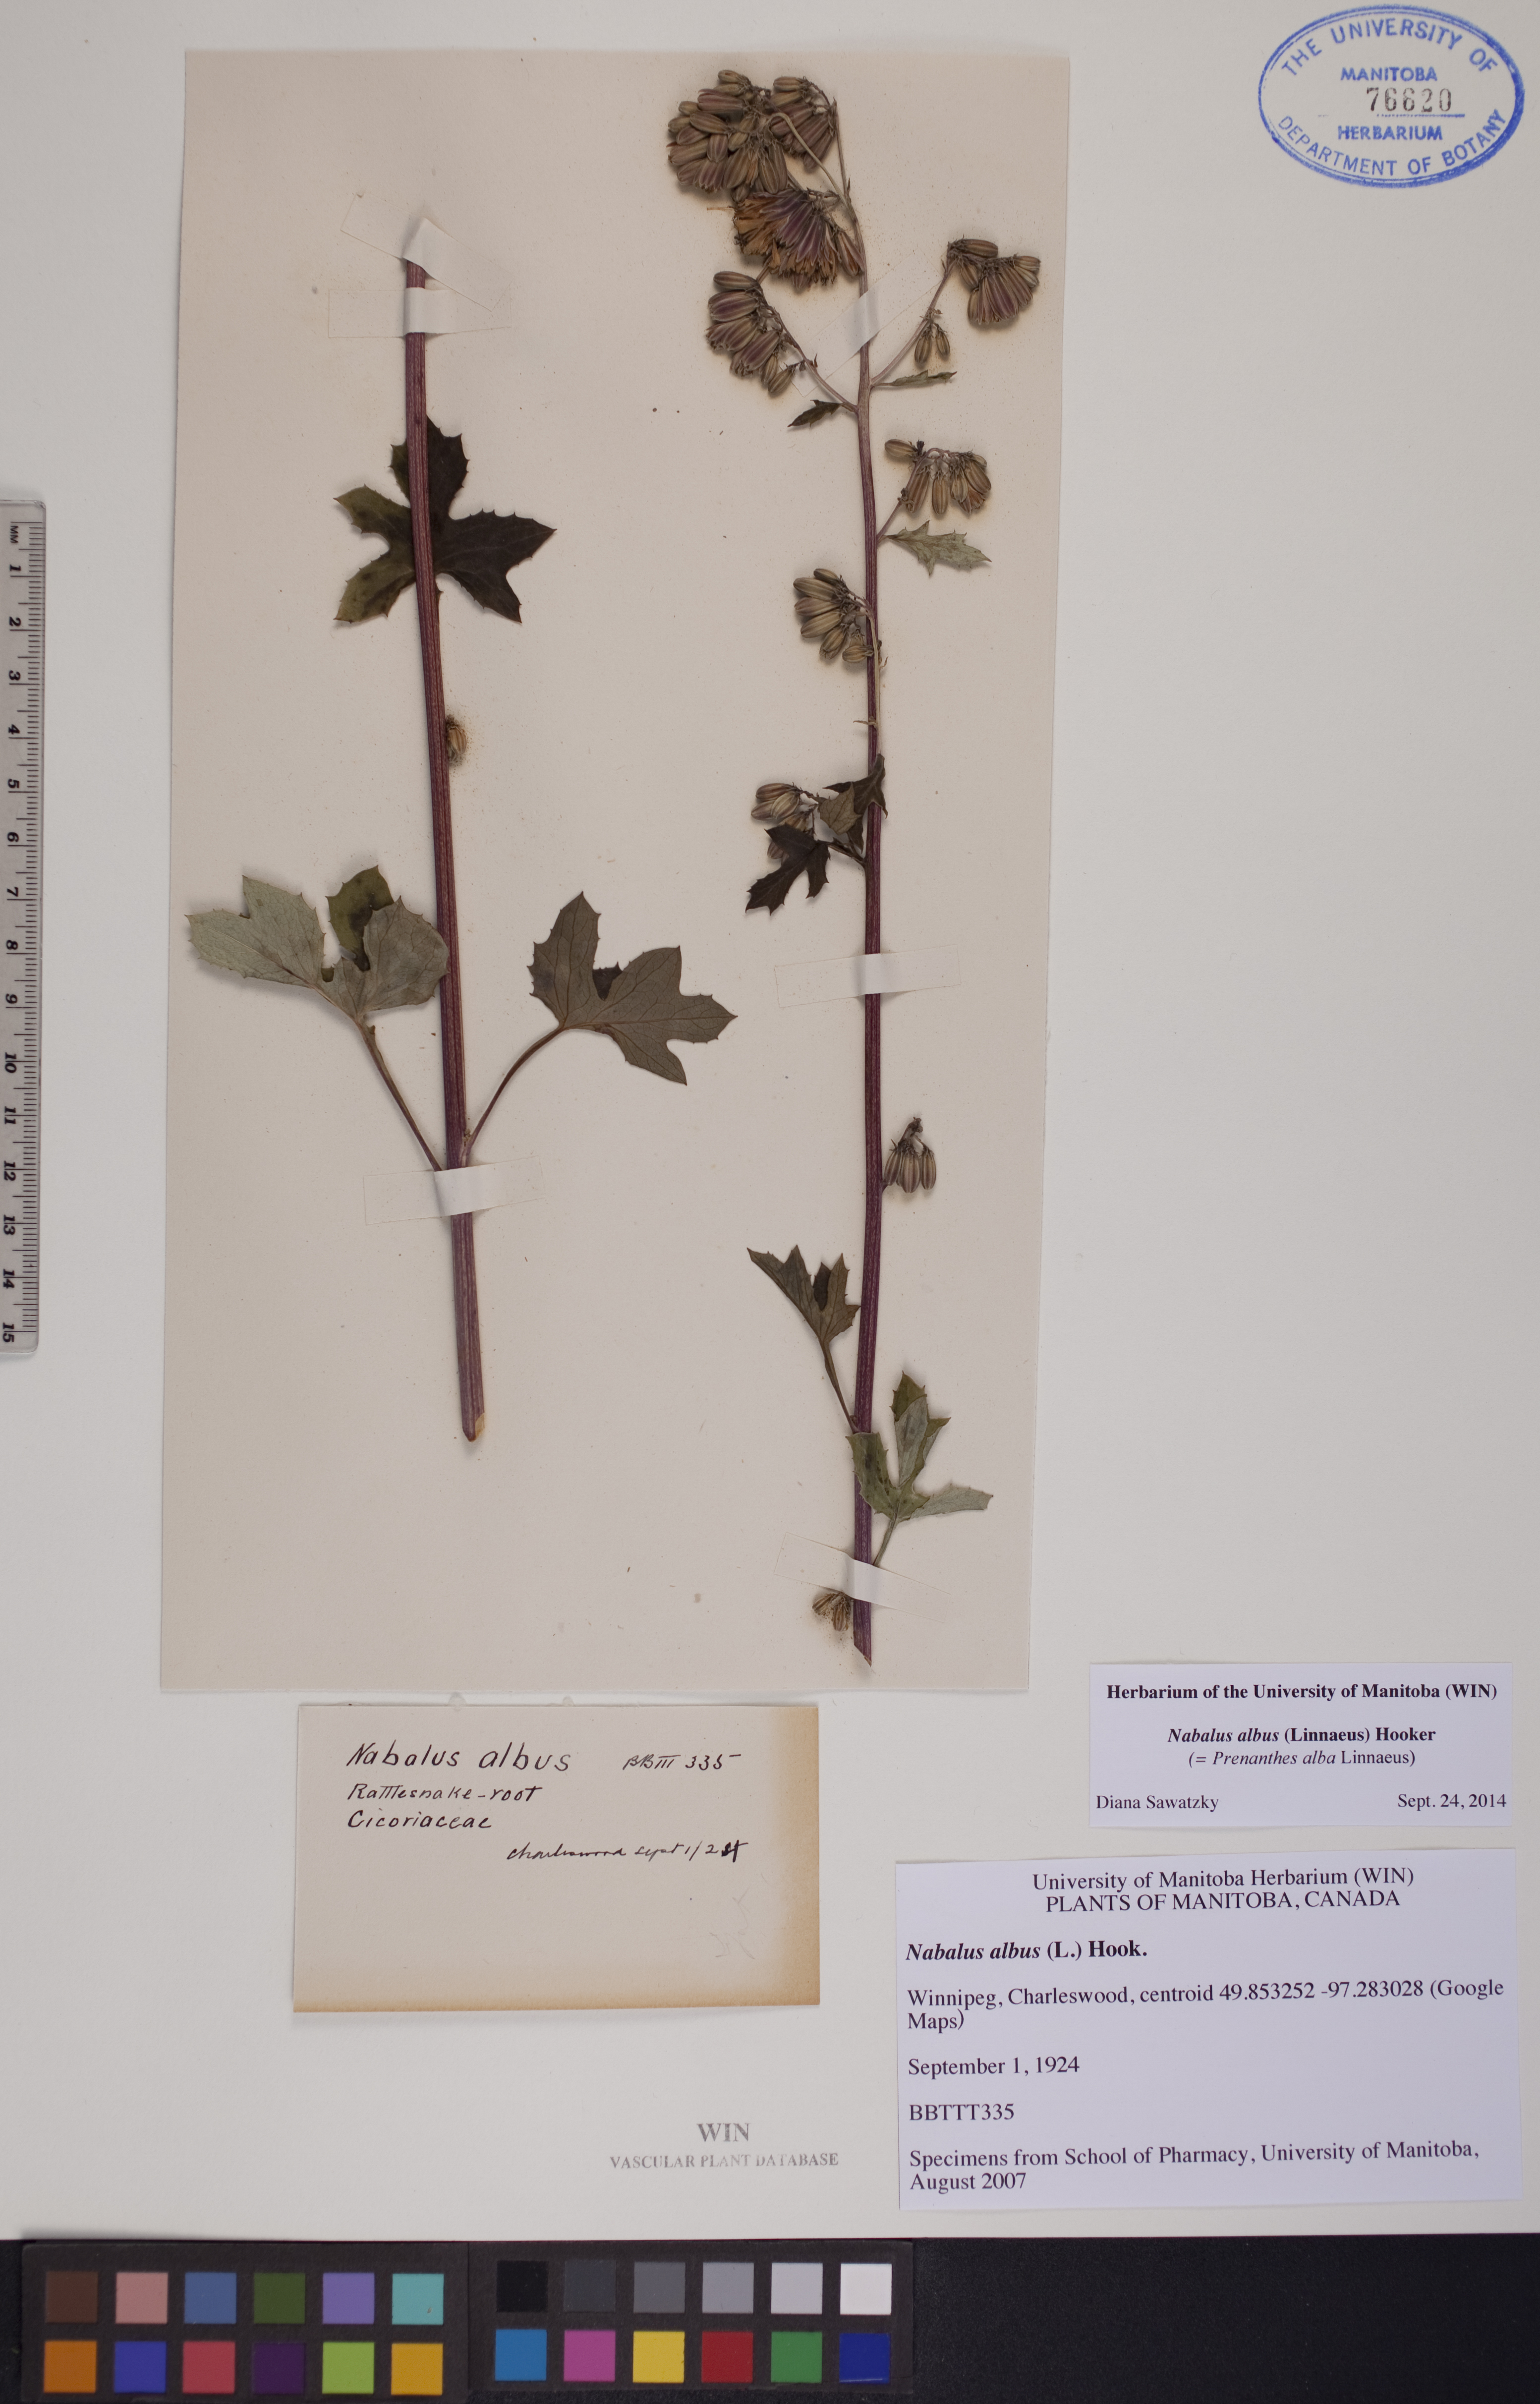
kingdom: Plantae
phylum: Tracheophyta
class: Magnoliopsida
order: Asterales
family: Asteraceae
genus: Nabalus
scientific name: Nabalus albus
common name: White rattlesnakeroot
